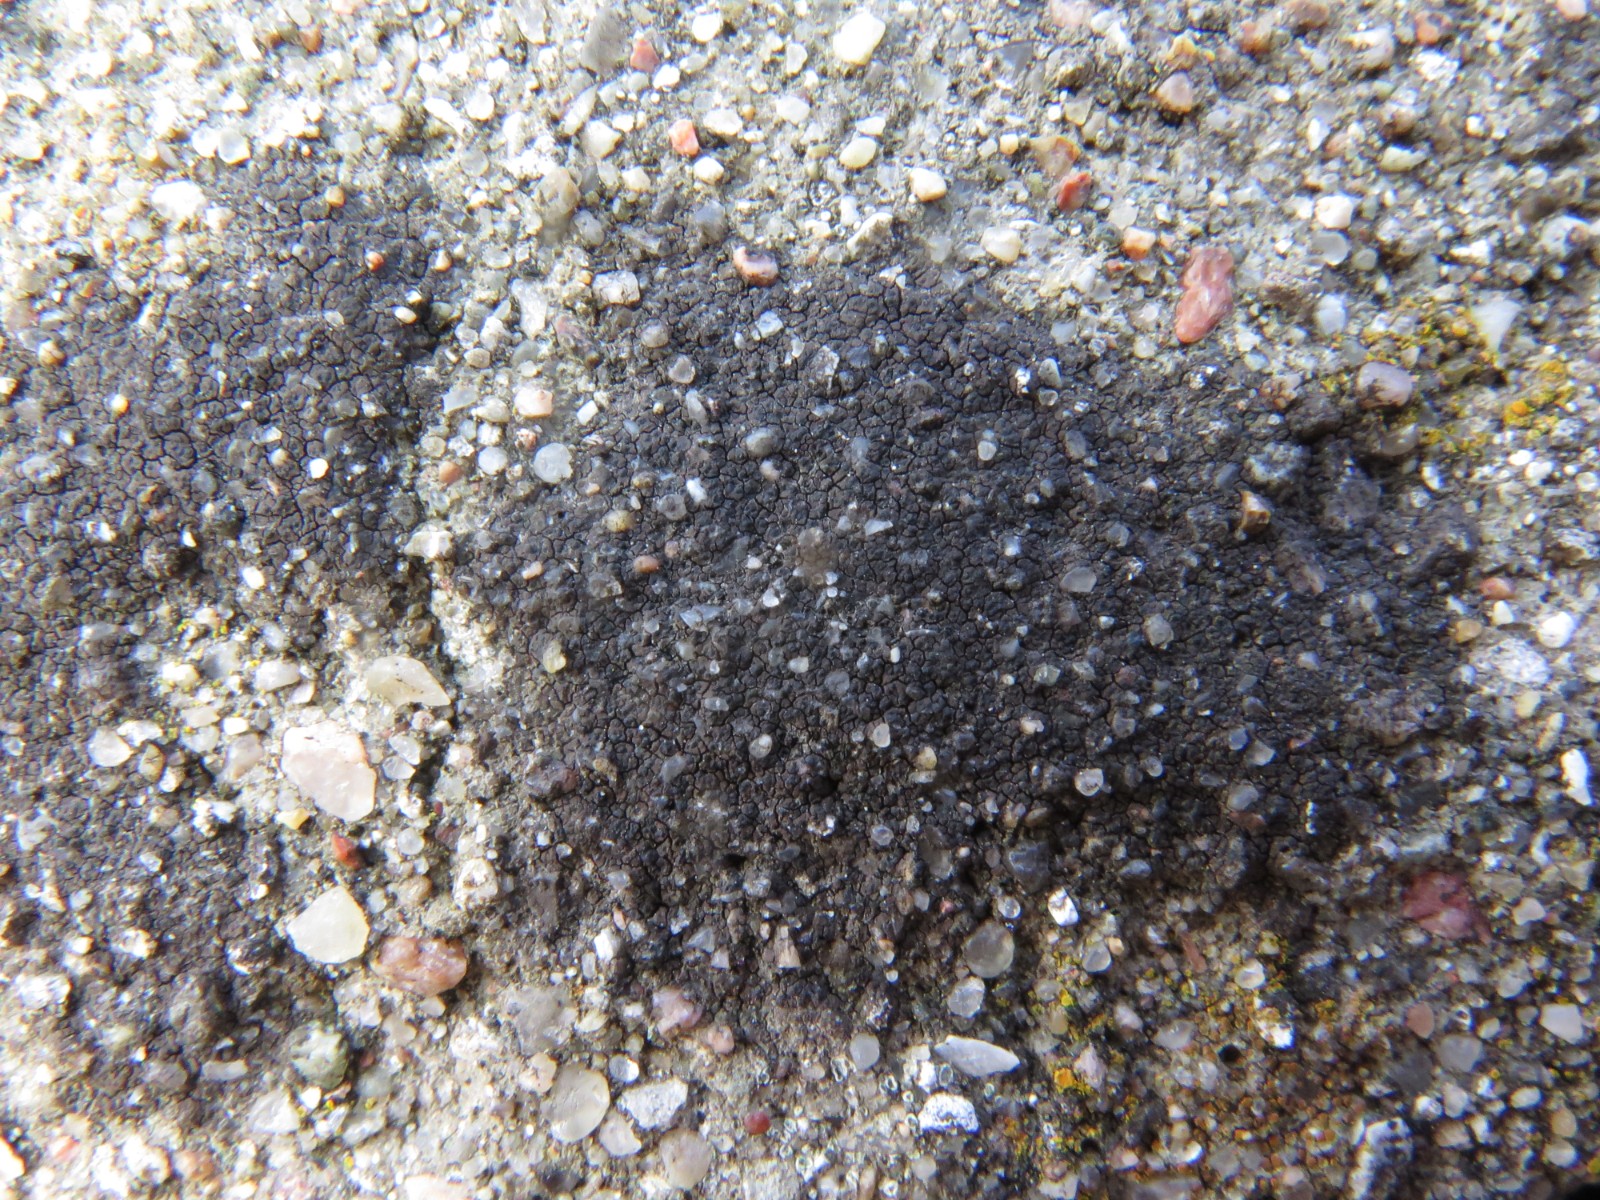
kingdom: Fungi
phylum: Ascomycota
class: Eurotiomycetes
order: Verrucariales
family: Verrucariaceae
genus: Verrucaria
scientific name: Verrucaria nigrescens
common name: sortbrun vortelav
